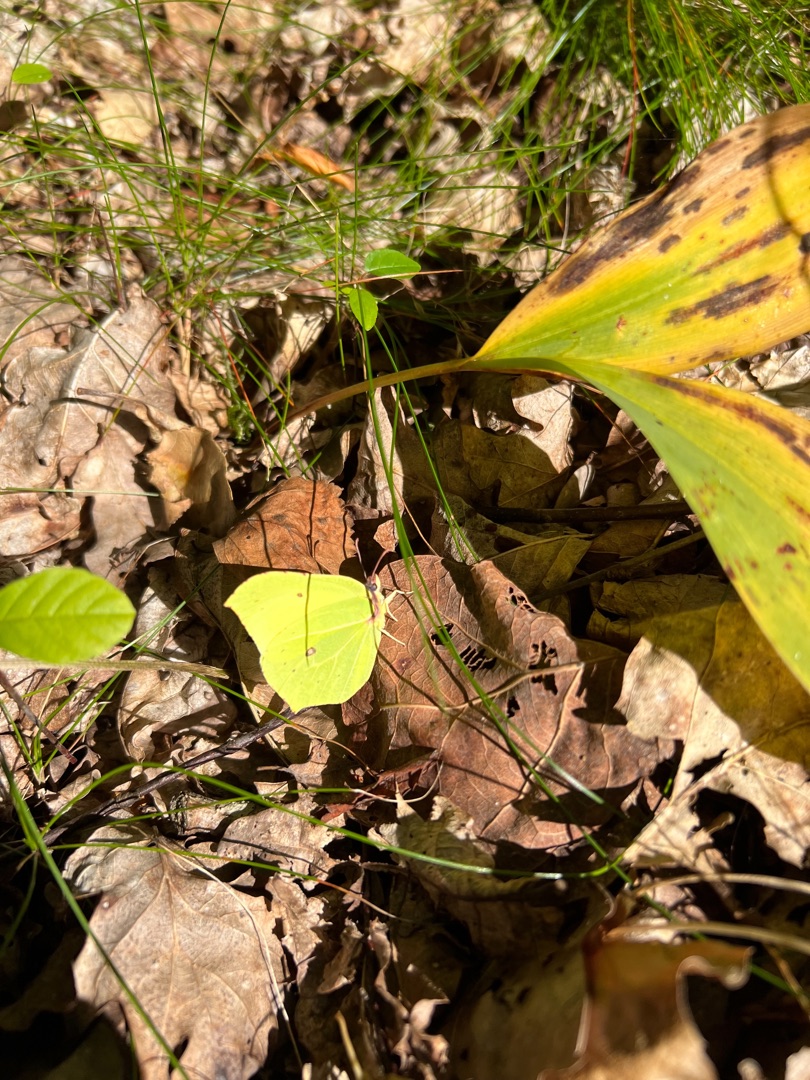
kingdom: Animalia
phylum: Arthropoda
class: Insecta
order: Lepidoptera
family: Pieridae
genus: Gonepteryx
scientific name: Gonepteryx rhamni
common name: Citronsommerfugl
